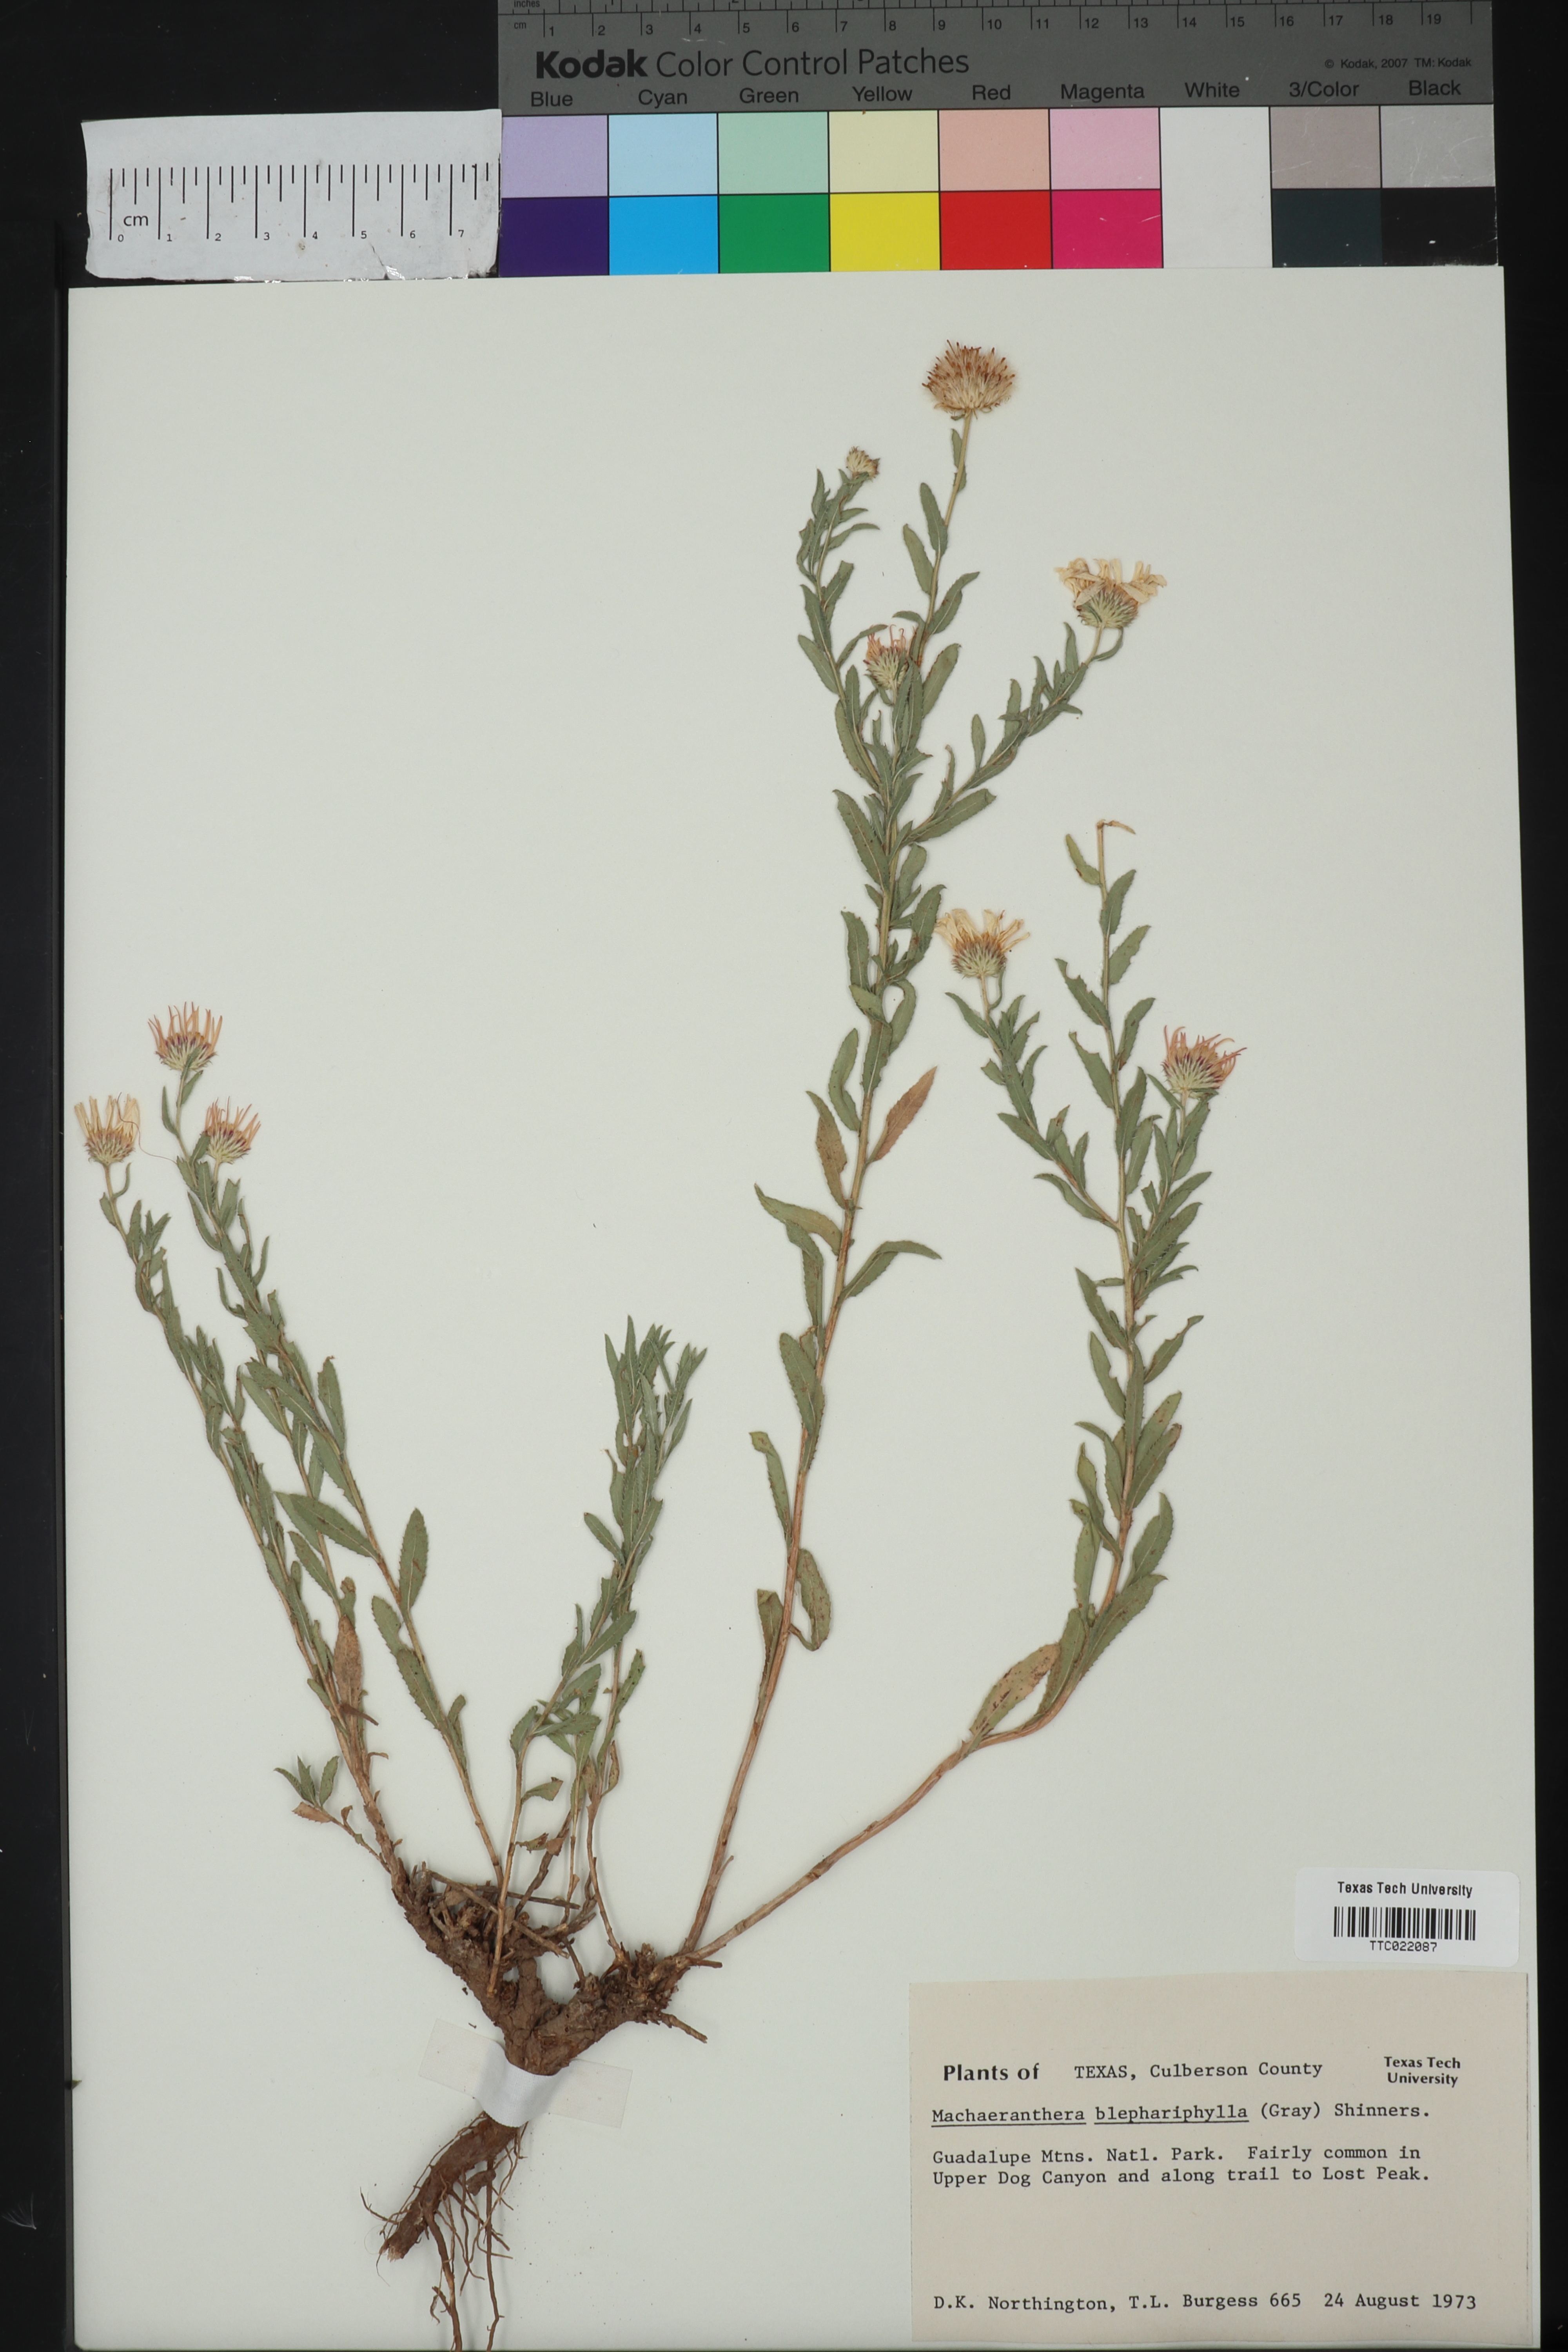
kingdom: Plantae
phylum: Tracheophyta
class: Magnoliopsida
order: Asterales
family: Asteraceae
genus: Xanthisma
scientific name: Xanthisma blephariphyllum
